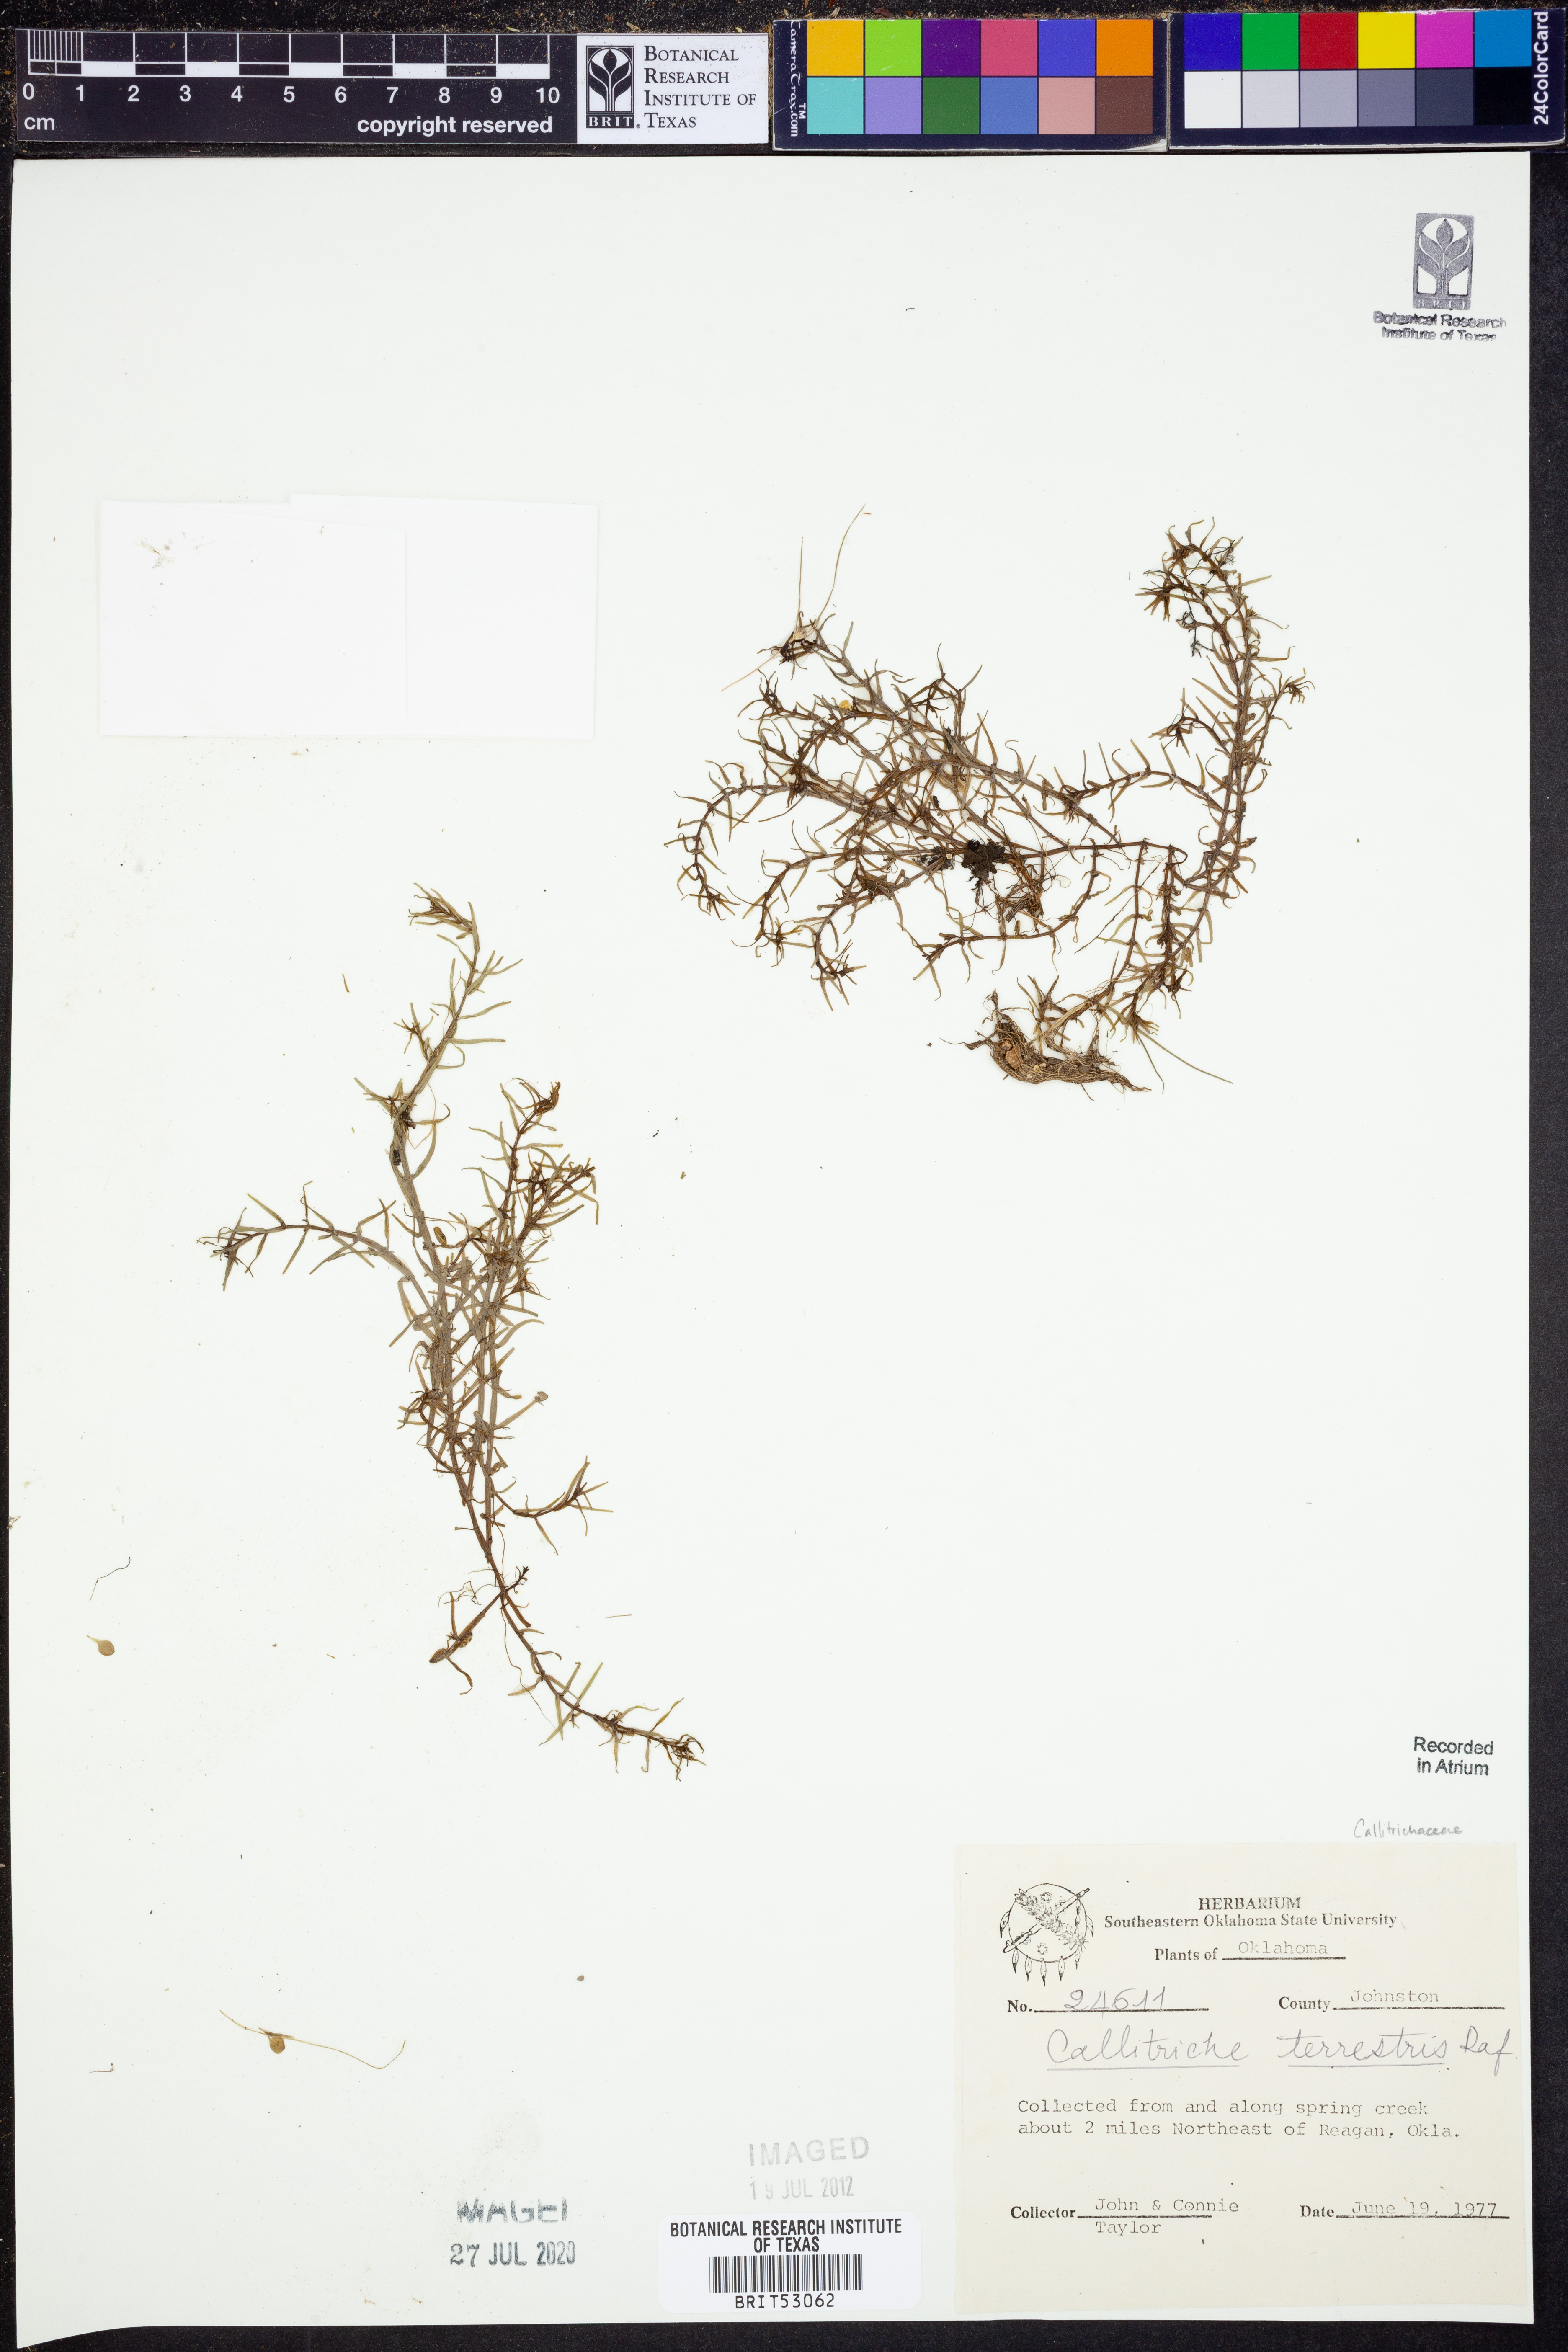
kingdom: Plantae
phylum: Tracheophyta
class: Magnoliopsida
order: Lamiales
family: Plantaginaceae
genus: Callitriche
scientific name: Callitriche terrestris
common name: Terrestrial water-starwort
